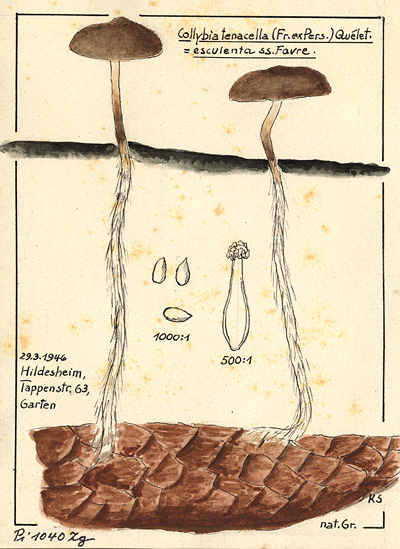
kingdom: Fungi
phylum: Basidiomycota
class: Agaricomycetes
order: Agaricales
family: Physalacriaceae
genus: Strobilurus
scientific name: Strobilurus tenacellus
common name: Pinecone cap
